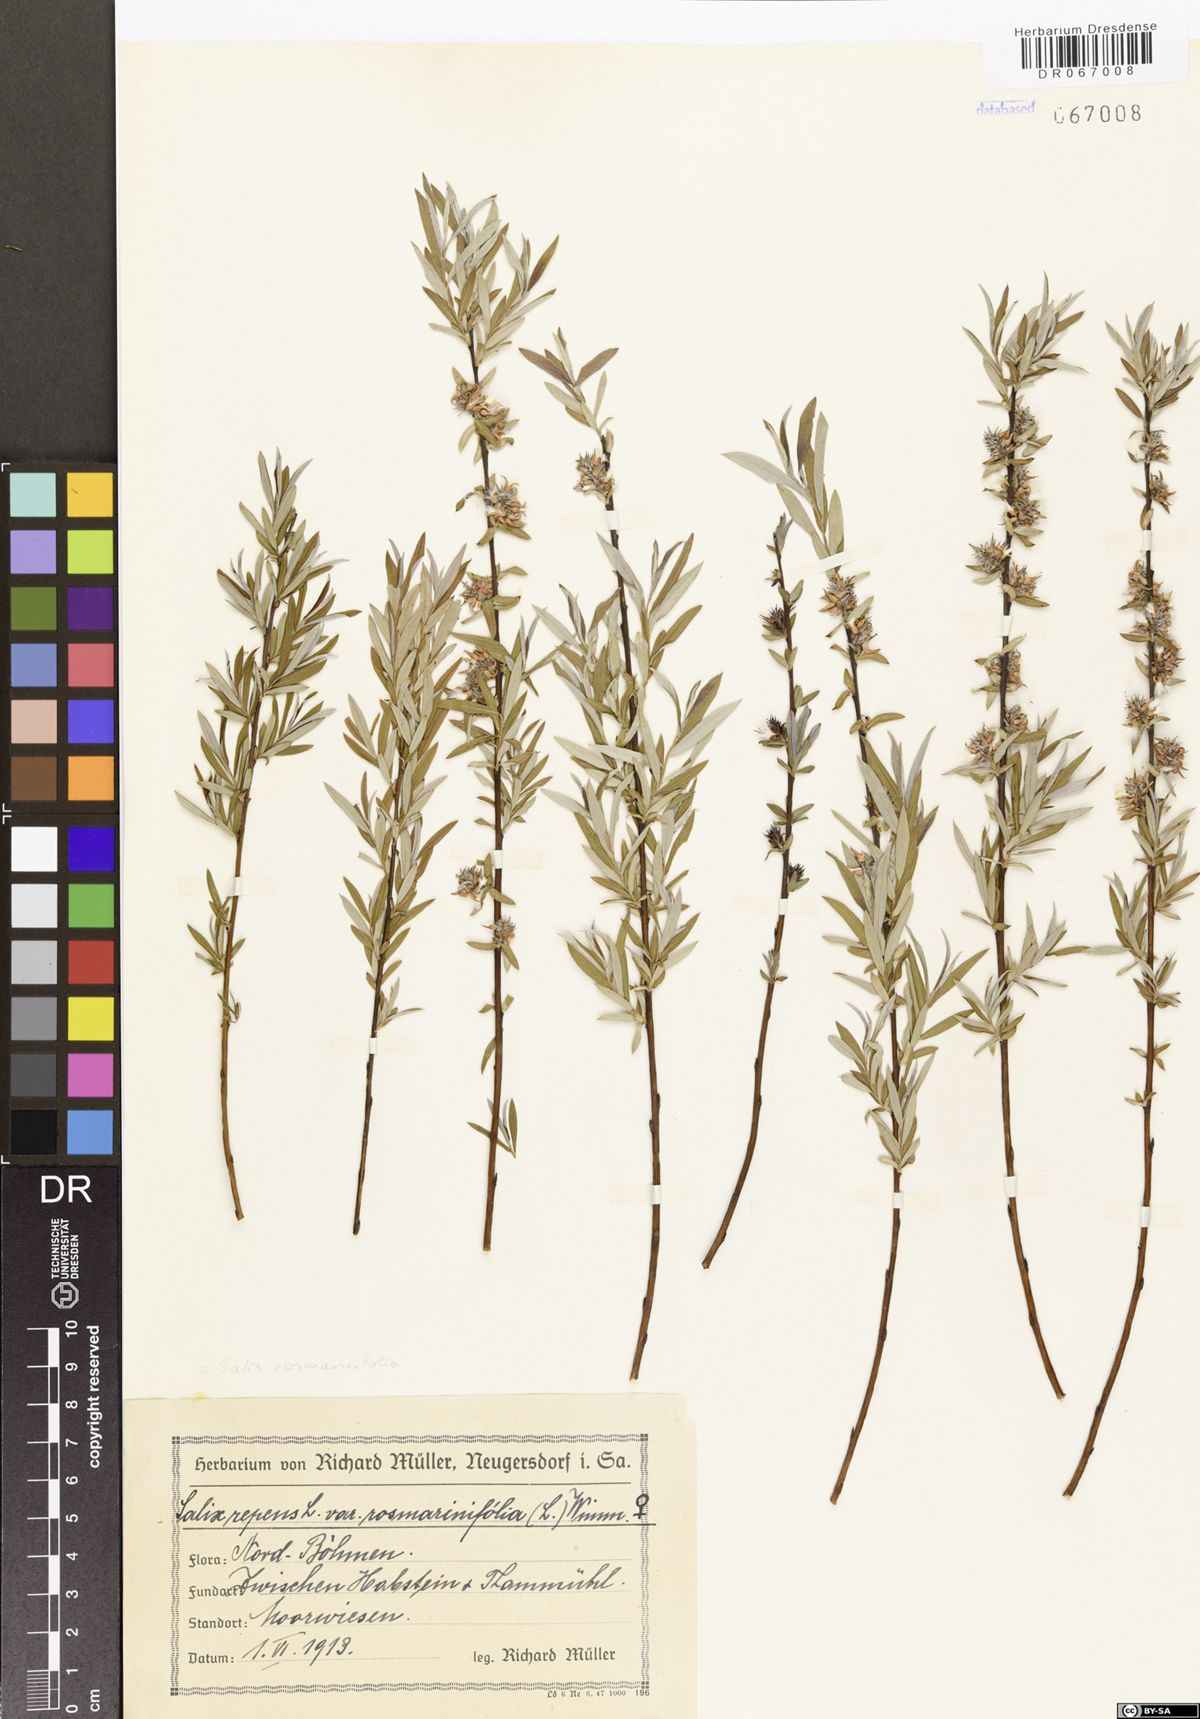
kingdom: Plantae
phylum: Tracheophyta
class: Magnoliopsida
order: Malpighiales
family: Salicaceae
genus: Salix
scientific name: Salix rosmarinifolia
